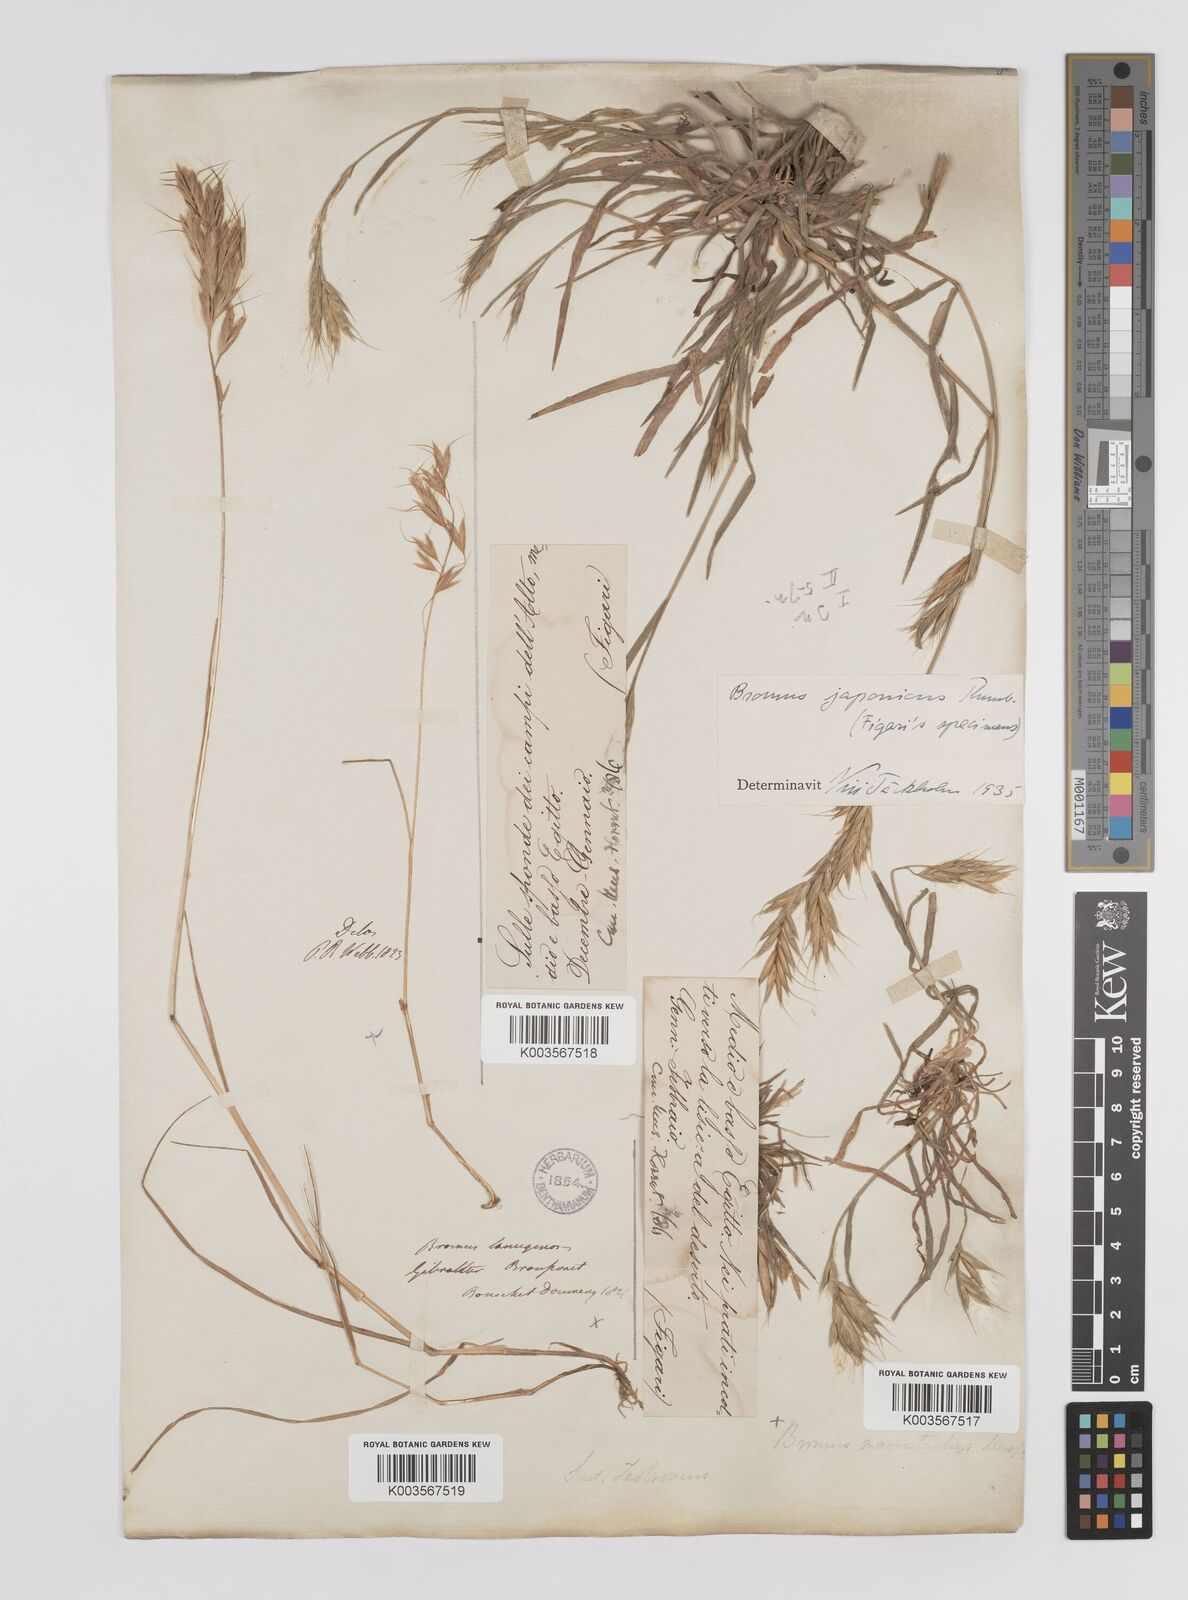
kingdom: Plantae
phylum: Tracheophyta
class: Liliopsida
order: Poales
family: Poaceae
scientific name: Poaceae
